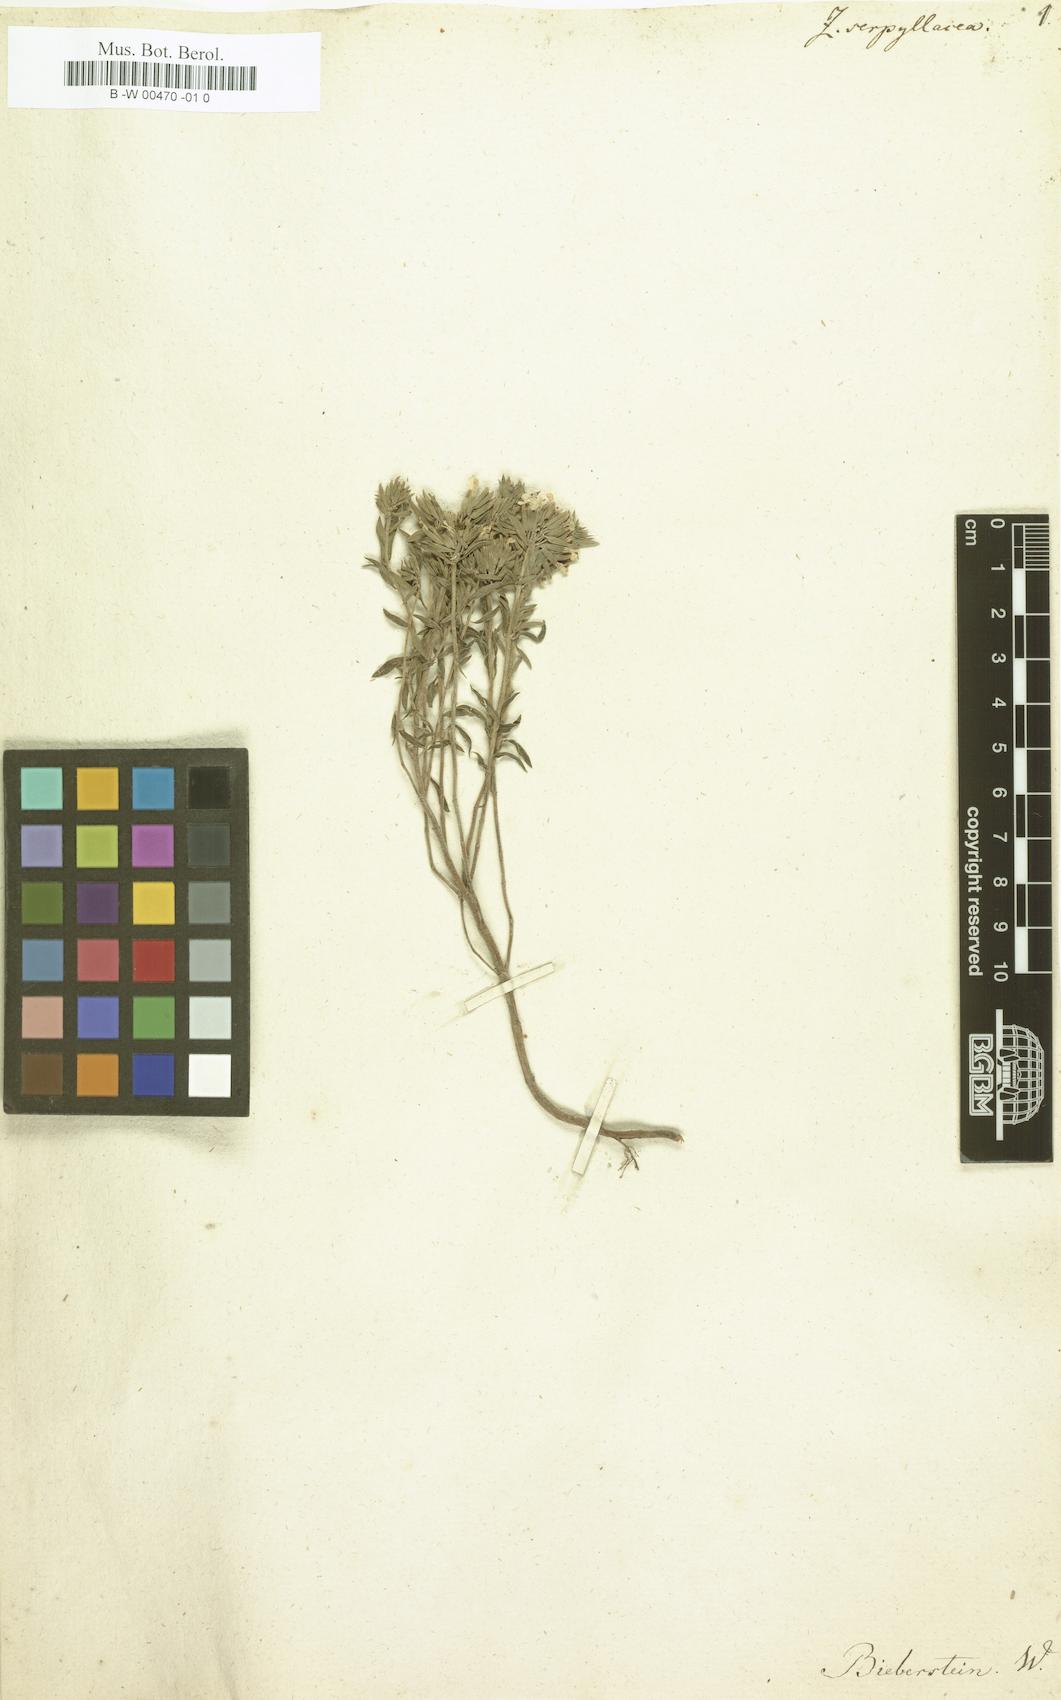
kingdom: Plantae
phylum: Tracheophyta
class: Magnoliopsida
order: Lamiales
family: Lamiaceae
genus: Ziziphora
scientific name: Ziziphora clinopodioides
